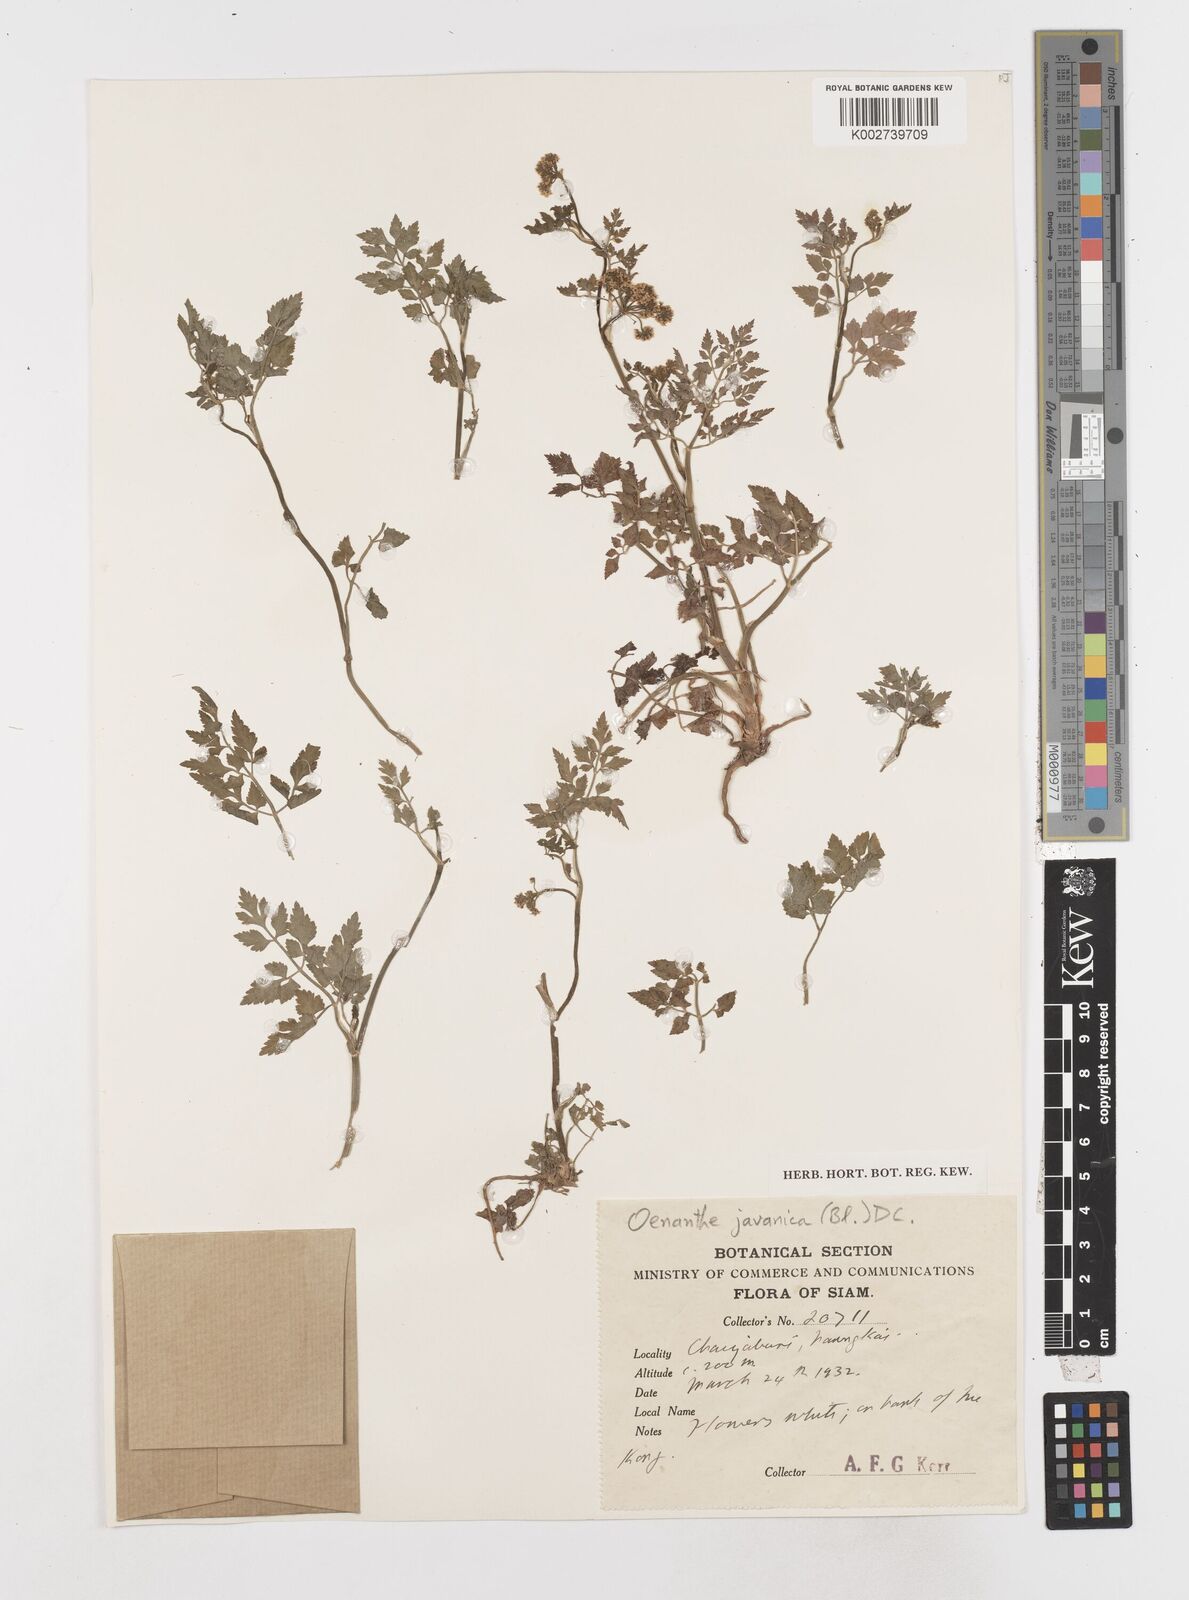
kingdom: Plantae
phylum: Tracheophyta
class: Magnoliopsida
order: Apiales
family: Apiaceae
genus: Oenanthe
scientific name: Oenanthe javanica
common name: Java water-dropwort
